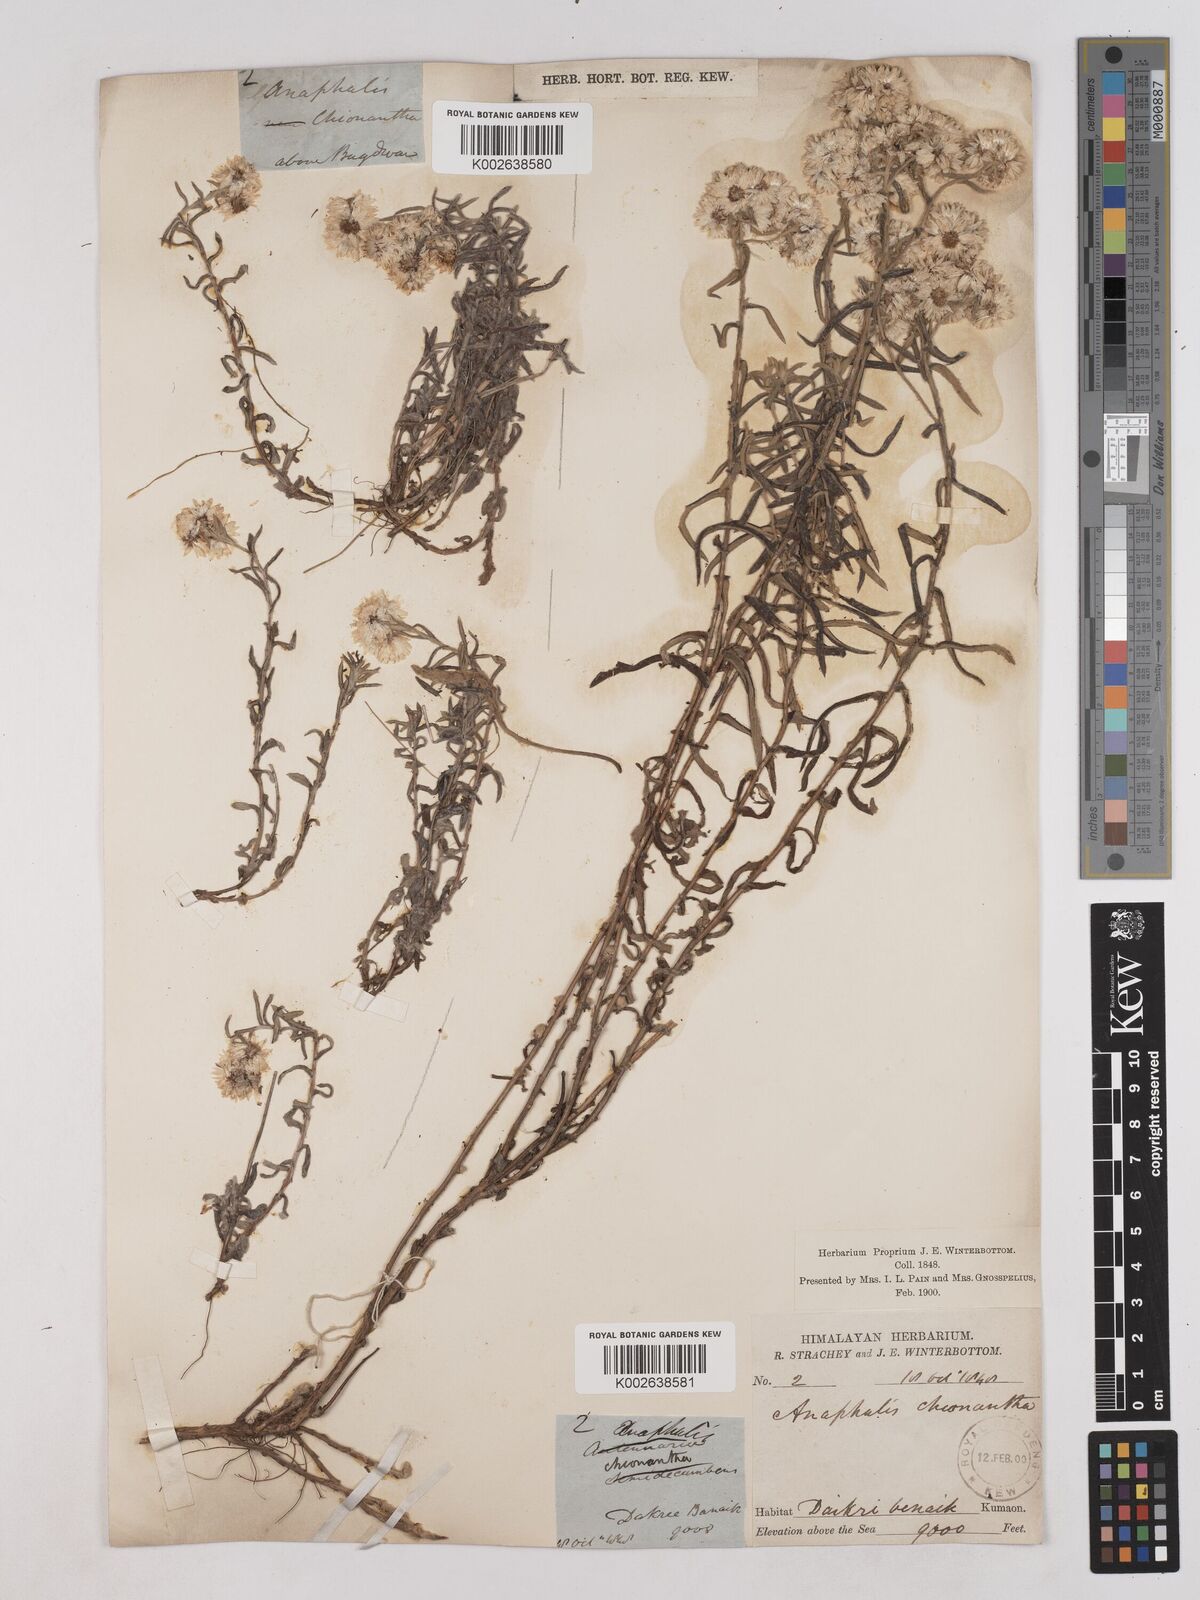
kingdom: Plantae
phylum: Tracheophyta
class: Magnoliopsida
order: Asterales
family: Asteraceae
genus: Anaphalis
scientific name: Anaphalis royleana
